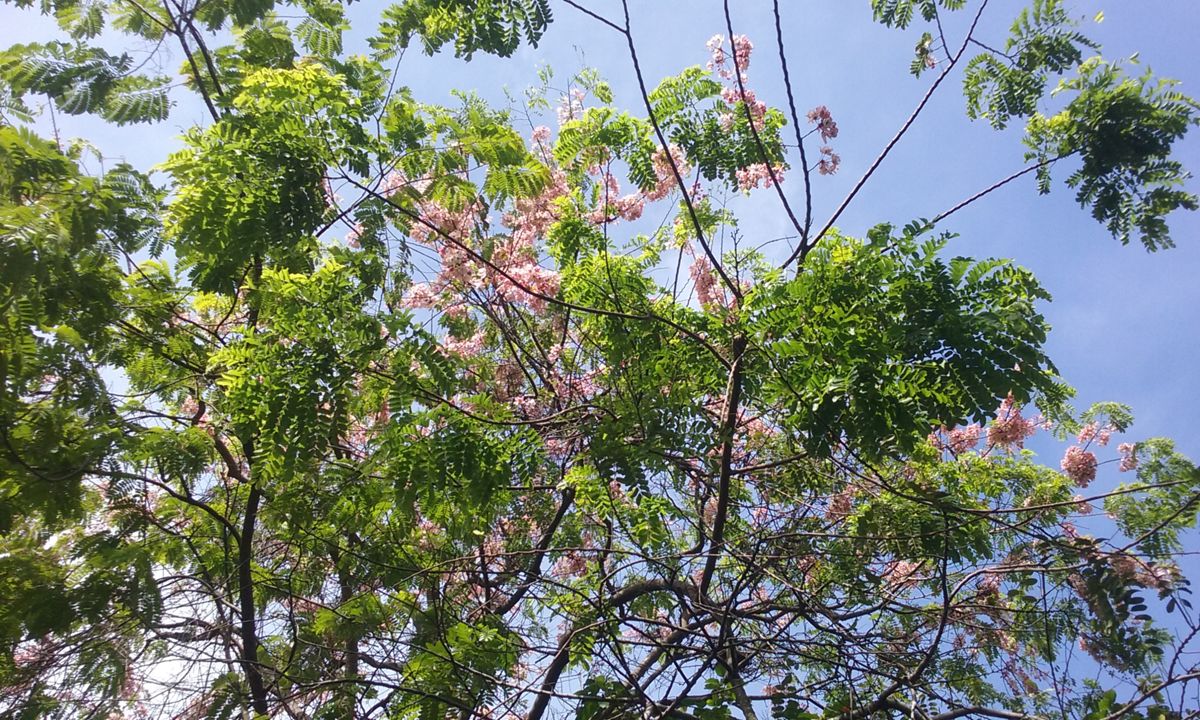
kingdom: Plantae
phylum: Tracheophyta
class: Magnoliopsida
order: Fabales
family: Fabaceae
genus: Cassia
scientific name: Cassia javanica
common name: Apple blossom
